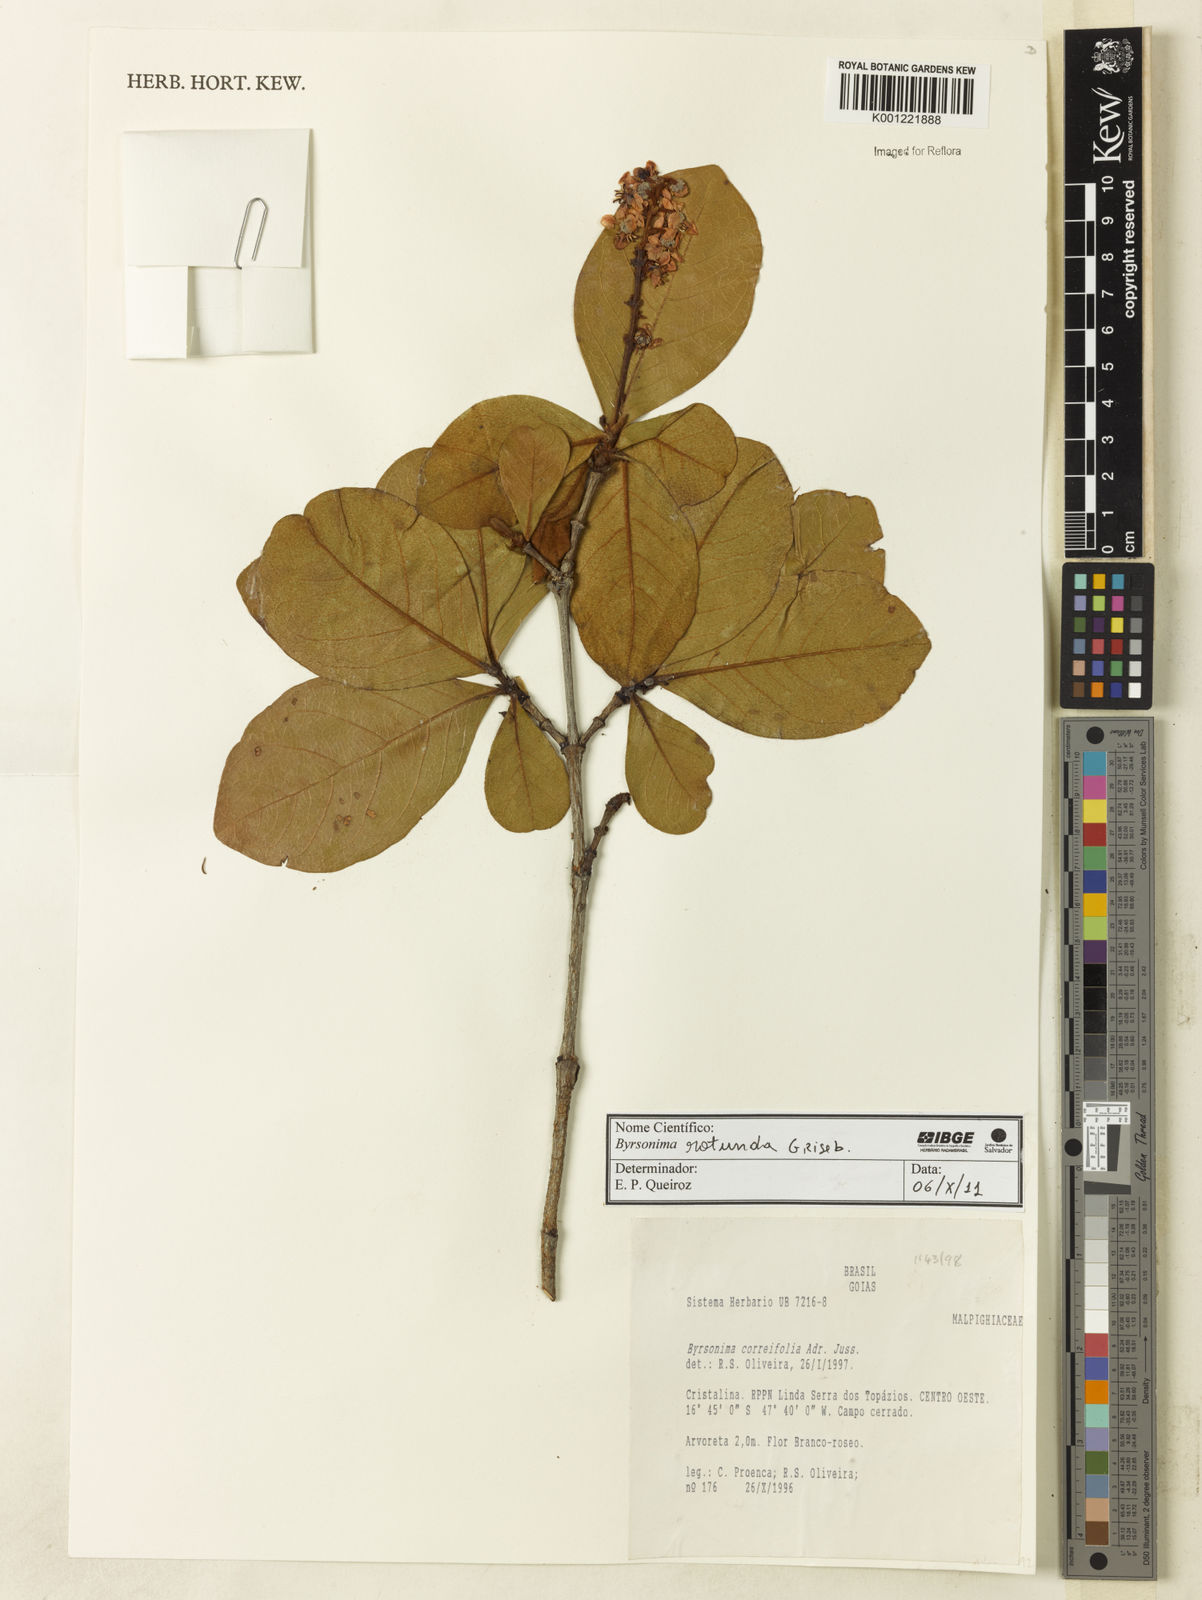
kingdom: Plantae
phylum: Tracheophyta
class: Magnoliopsida
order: Malpighiales
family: Malpighiaceae
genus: Byrsonima
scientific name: Byrsonima rotunda
